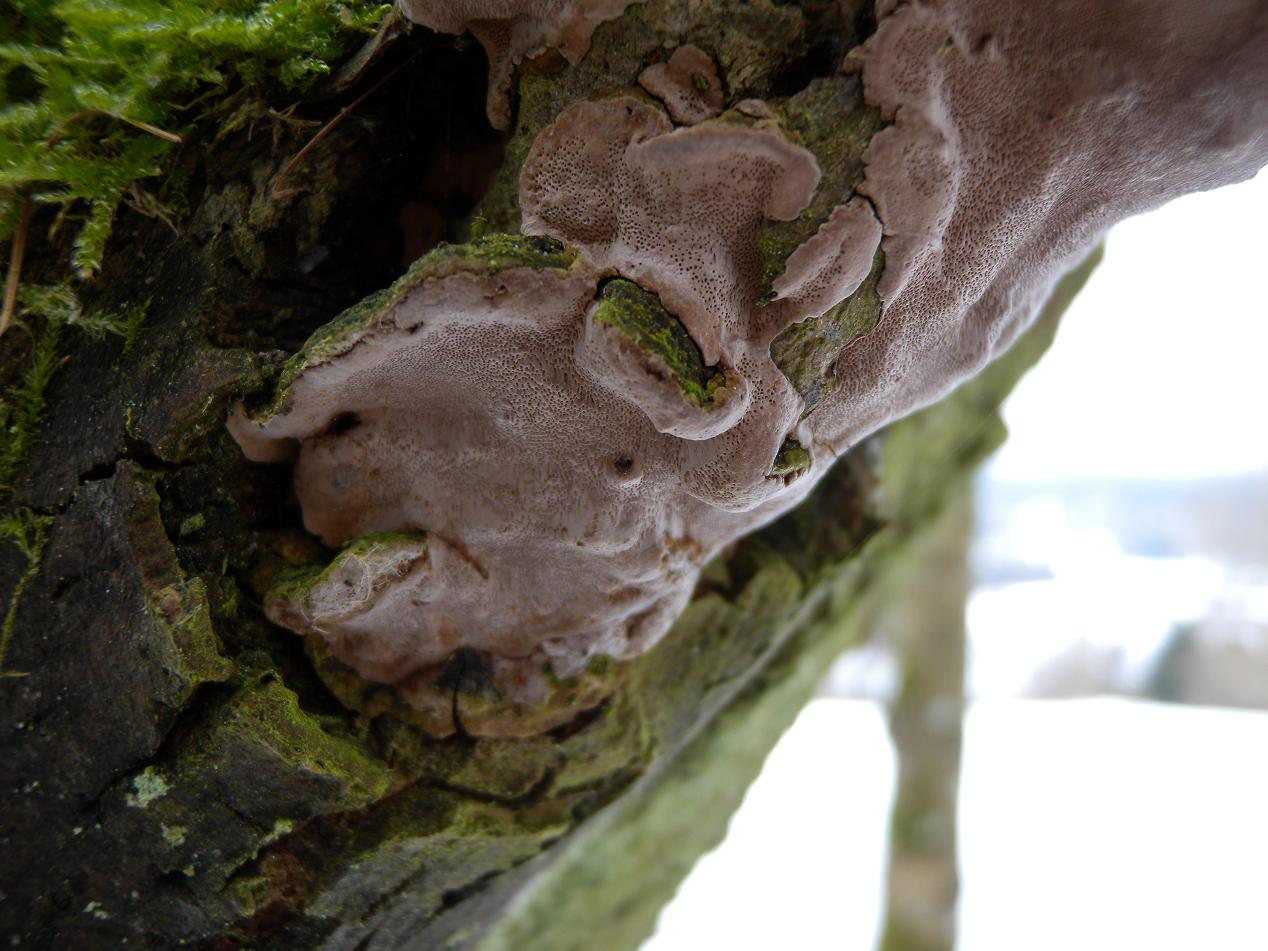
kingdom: Fungi
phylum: Basidiomycota
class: Agaricomycetes
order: Hymenochaetales
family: Hymenochaetaceae
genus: Phellinopsis
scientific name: Phellinopsis conchata
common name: pile-ildporesvamp
